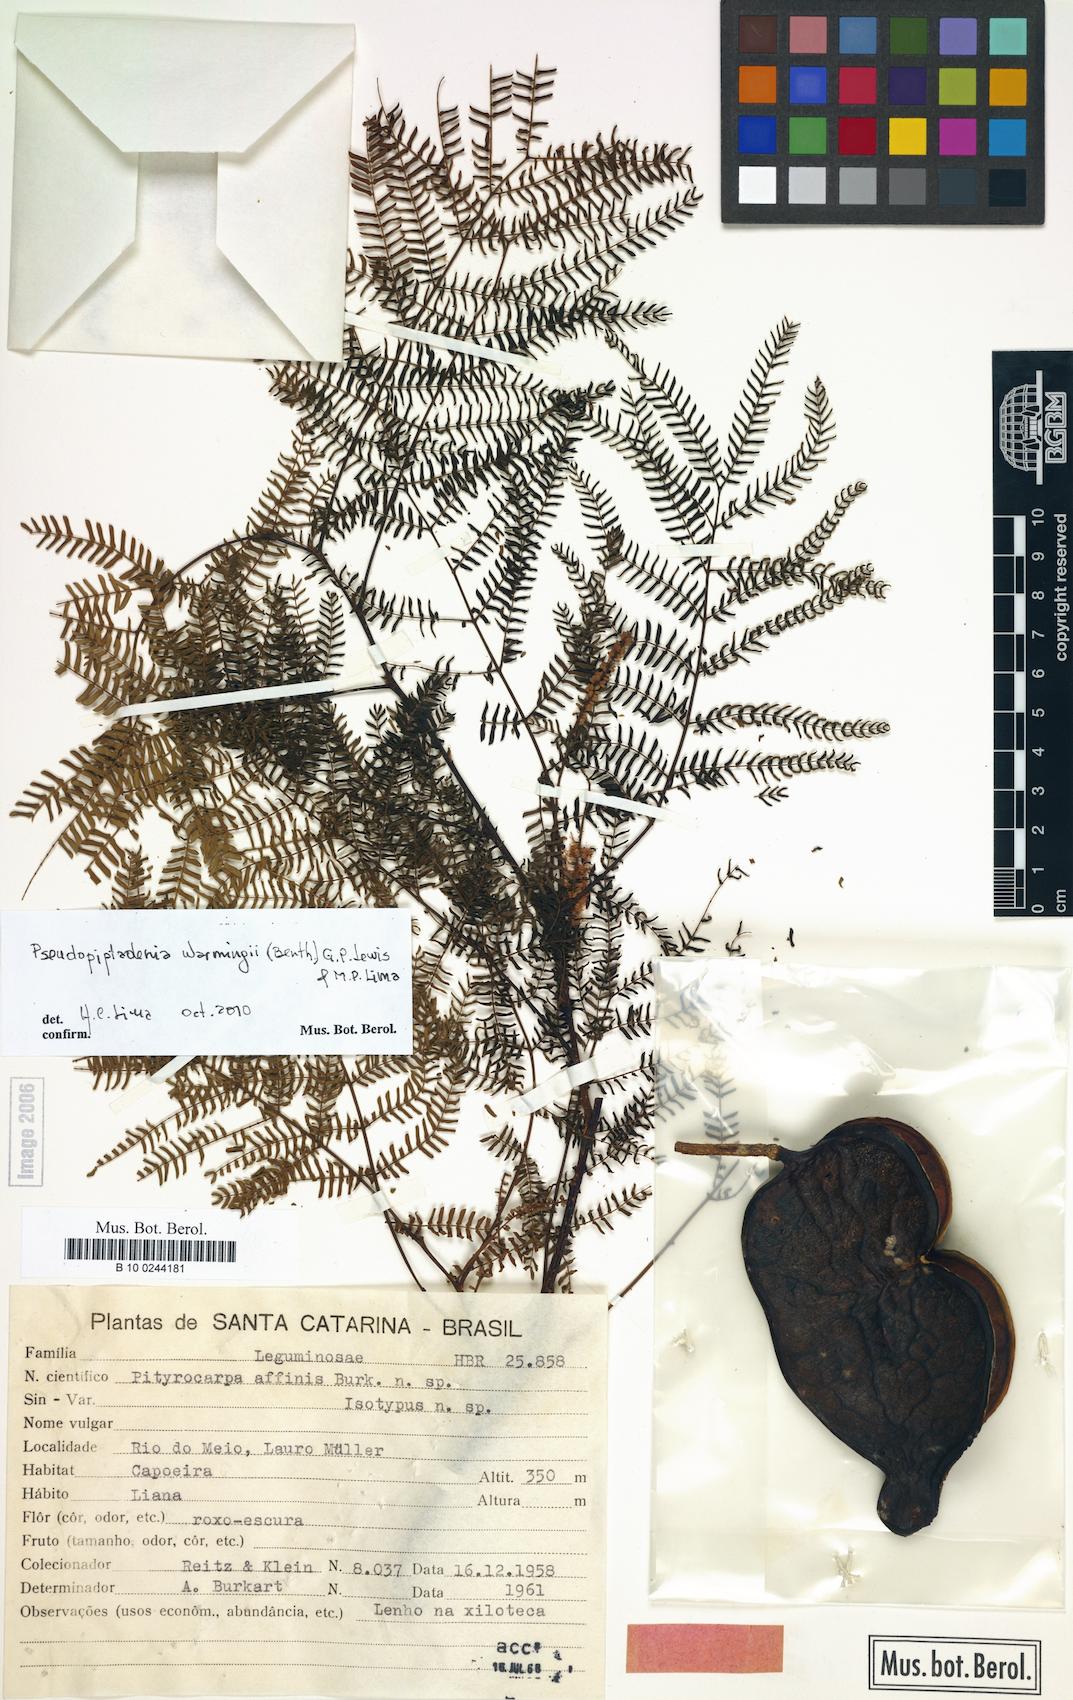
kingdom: Plantae
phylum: Tracheophyta
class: Magnoliopsida
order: Fabales
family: Fabaceae
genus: Pseudopiptadenia
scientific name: Pseudopiptadenia warmingii
